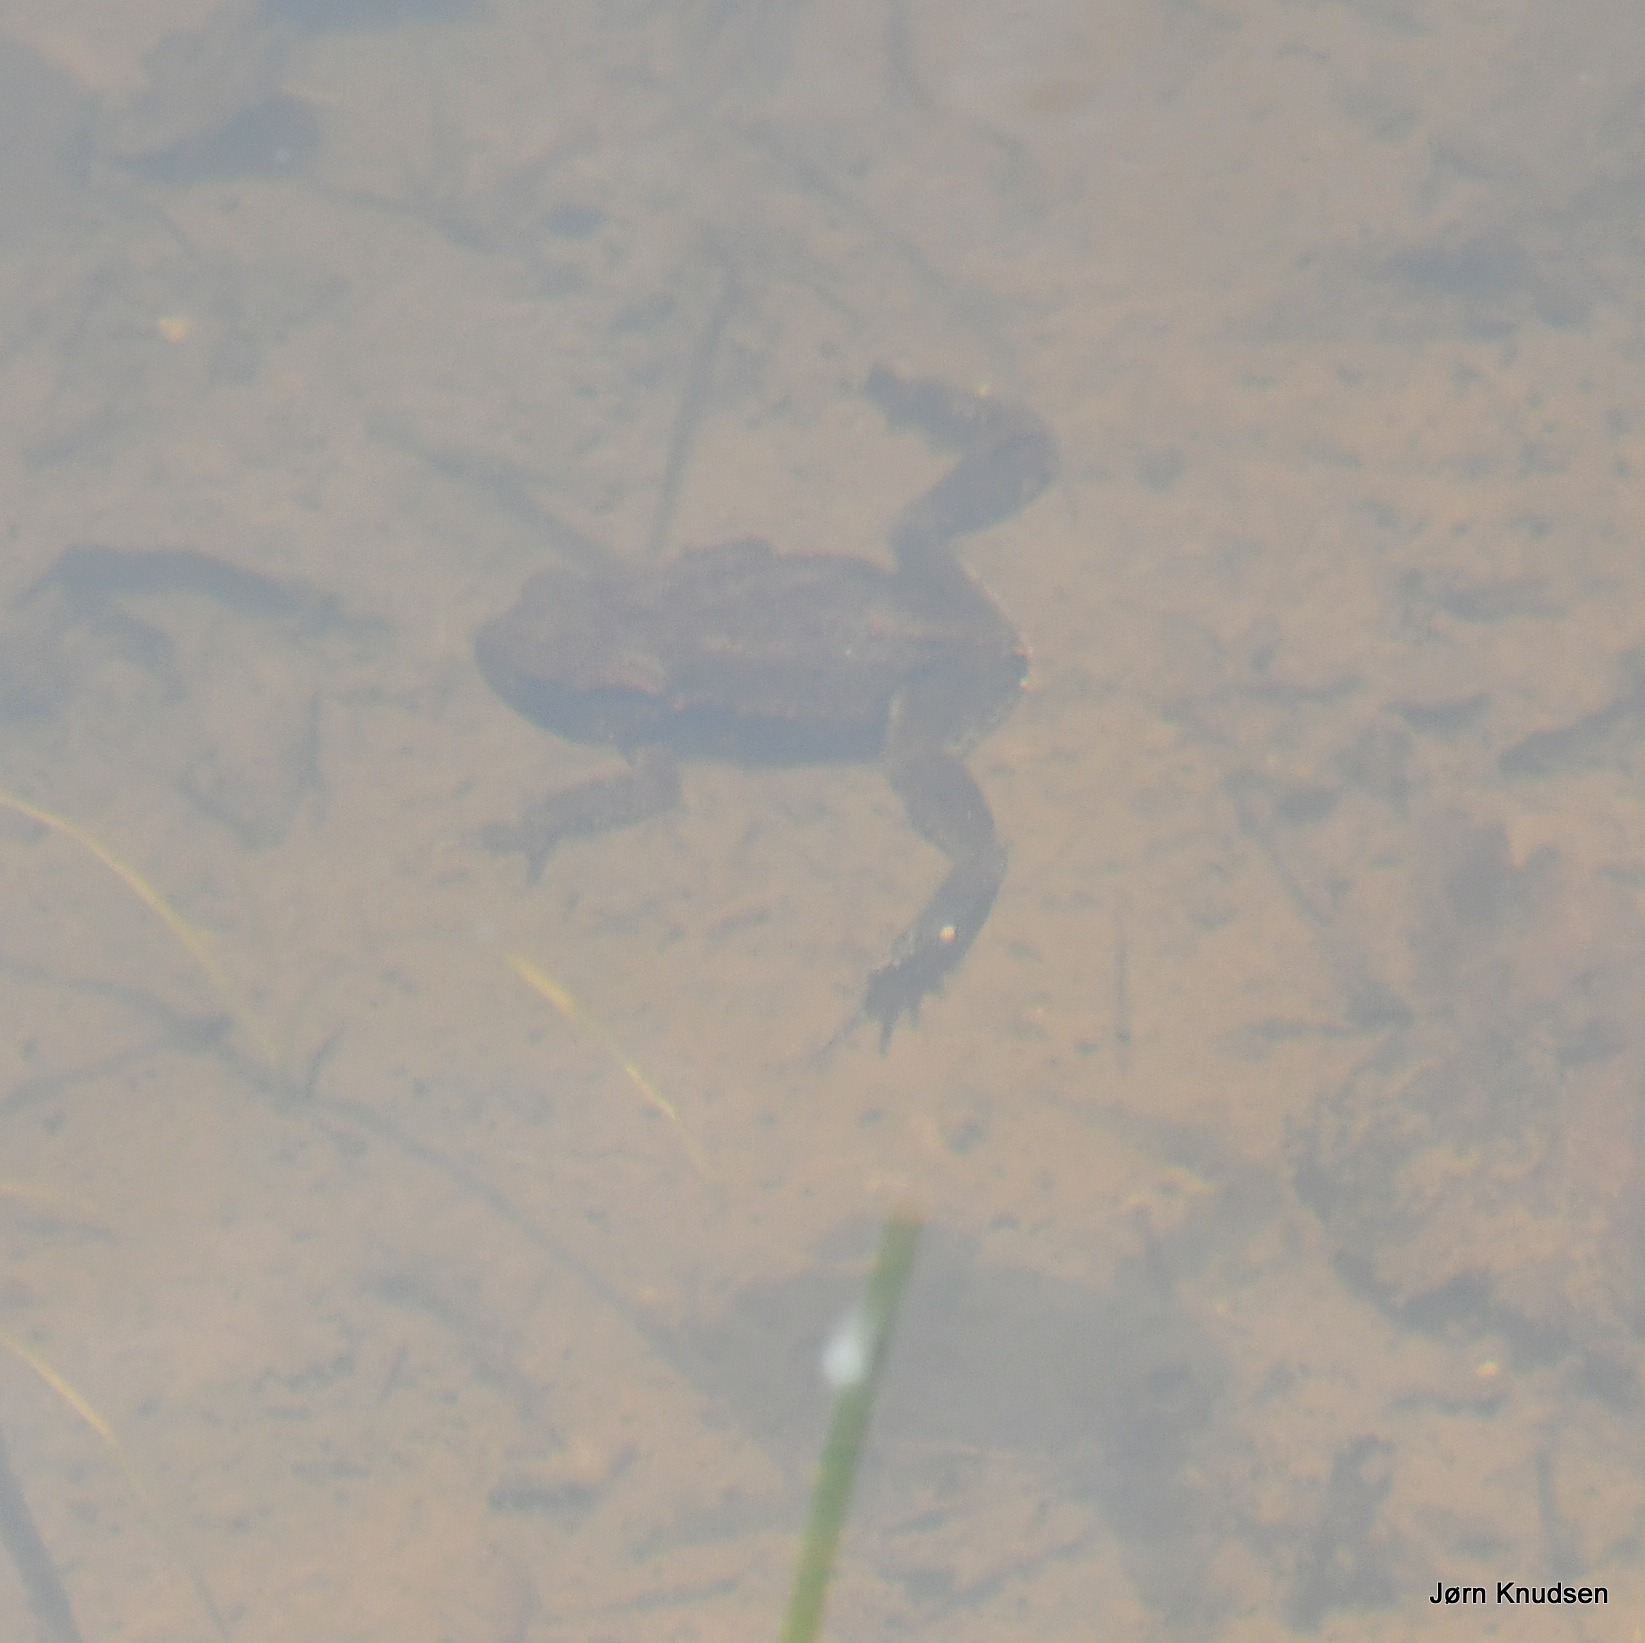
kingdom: Animalia
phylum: Chordata
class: Amphibia
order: Anura
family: Bufonidae
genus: Bufo
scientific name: Bufo bufo
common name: Skrubtudse
